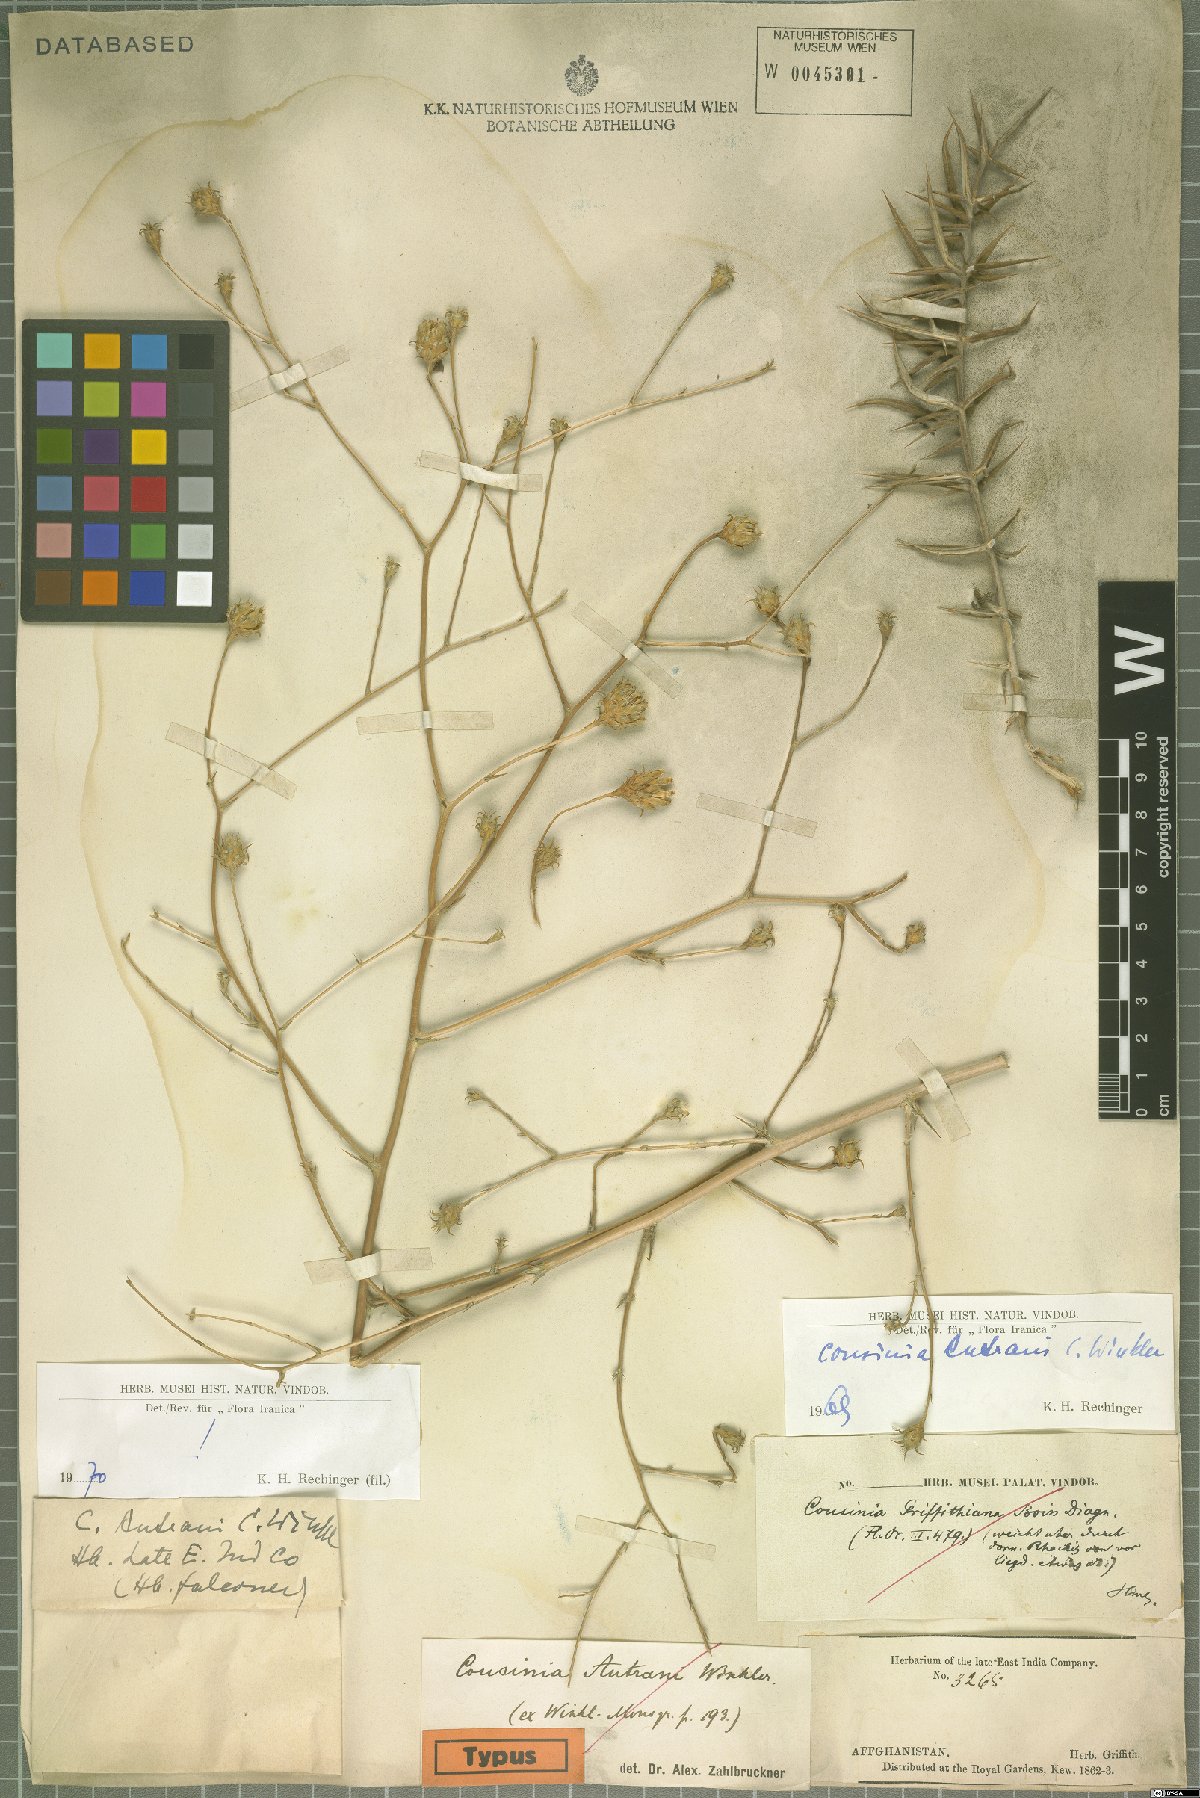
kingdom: Plantae
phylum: Tracheophyta
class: Magnoliopsida
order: Asterales
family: Asteraceae
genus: Cousinia
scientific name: Cousinia autranii
